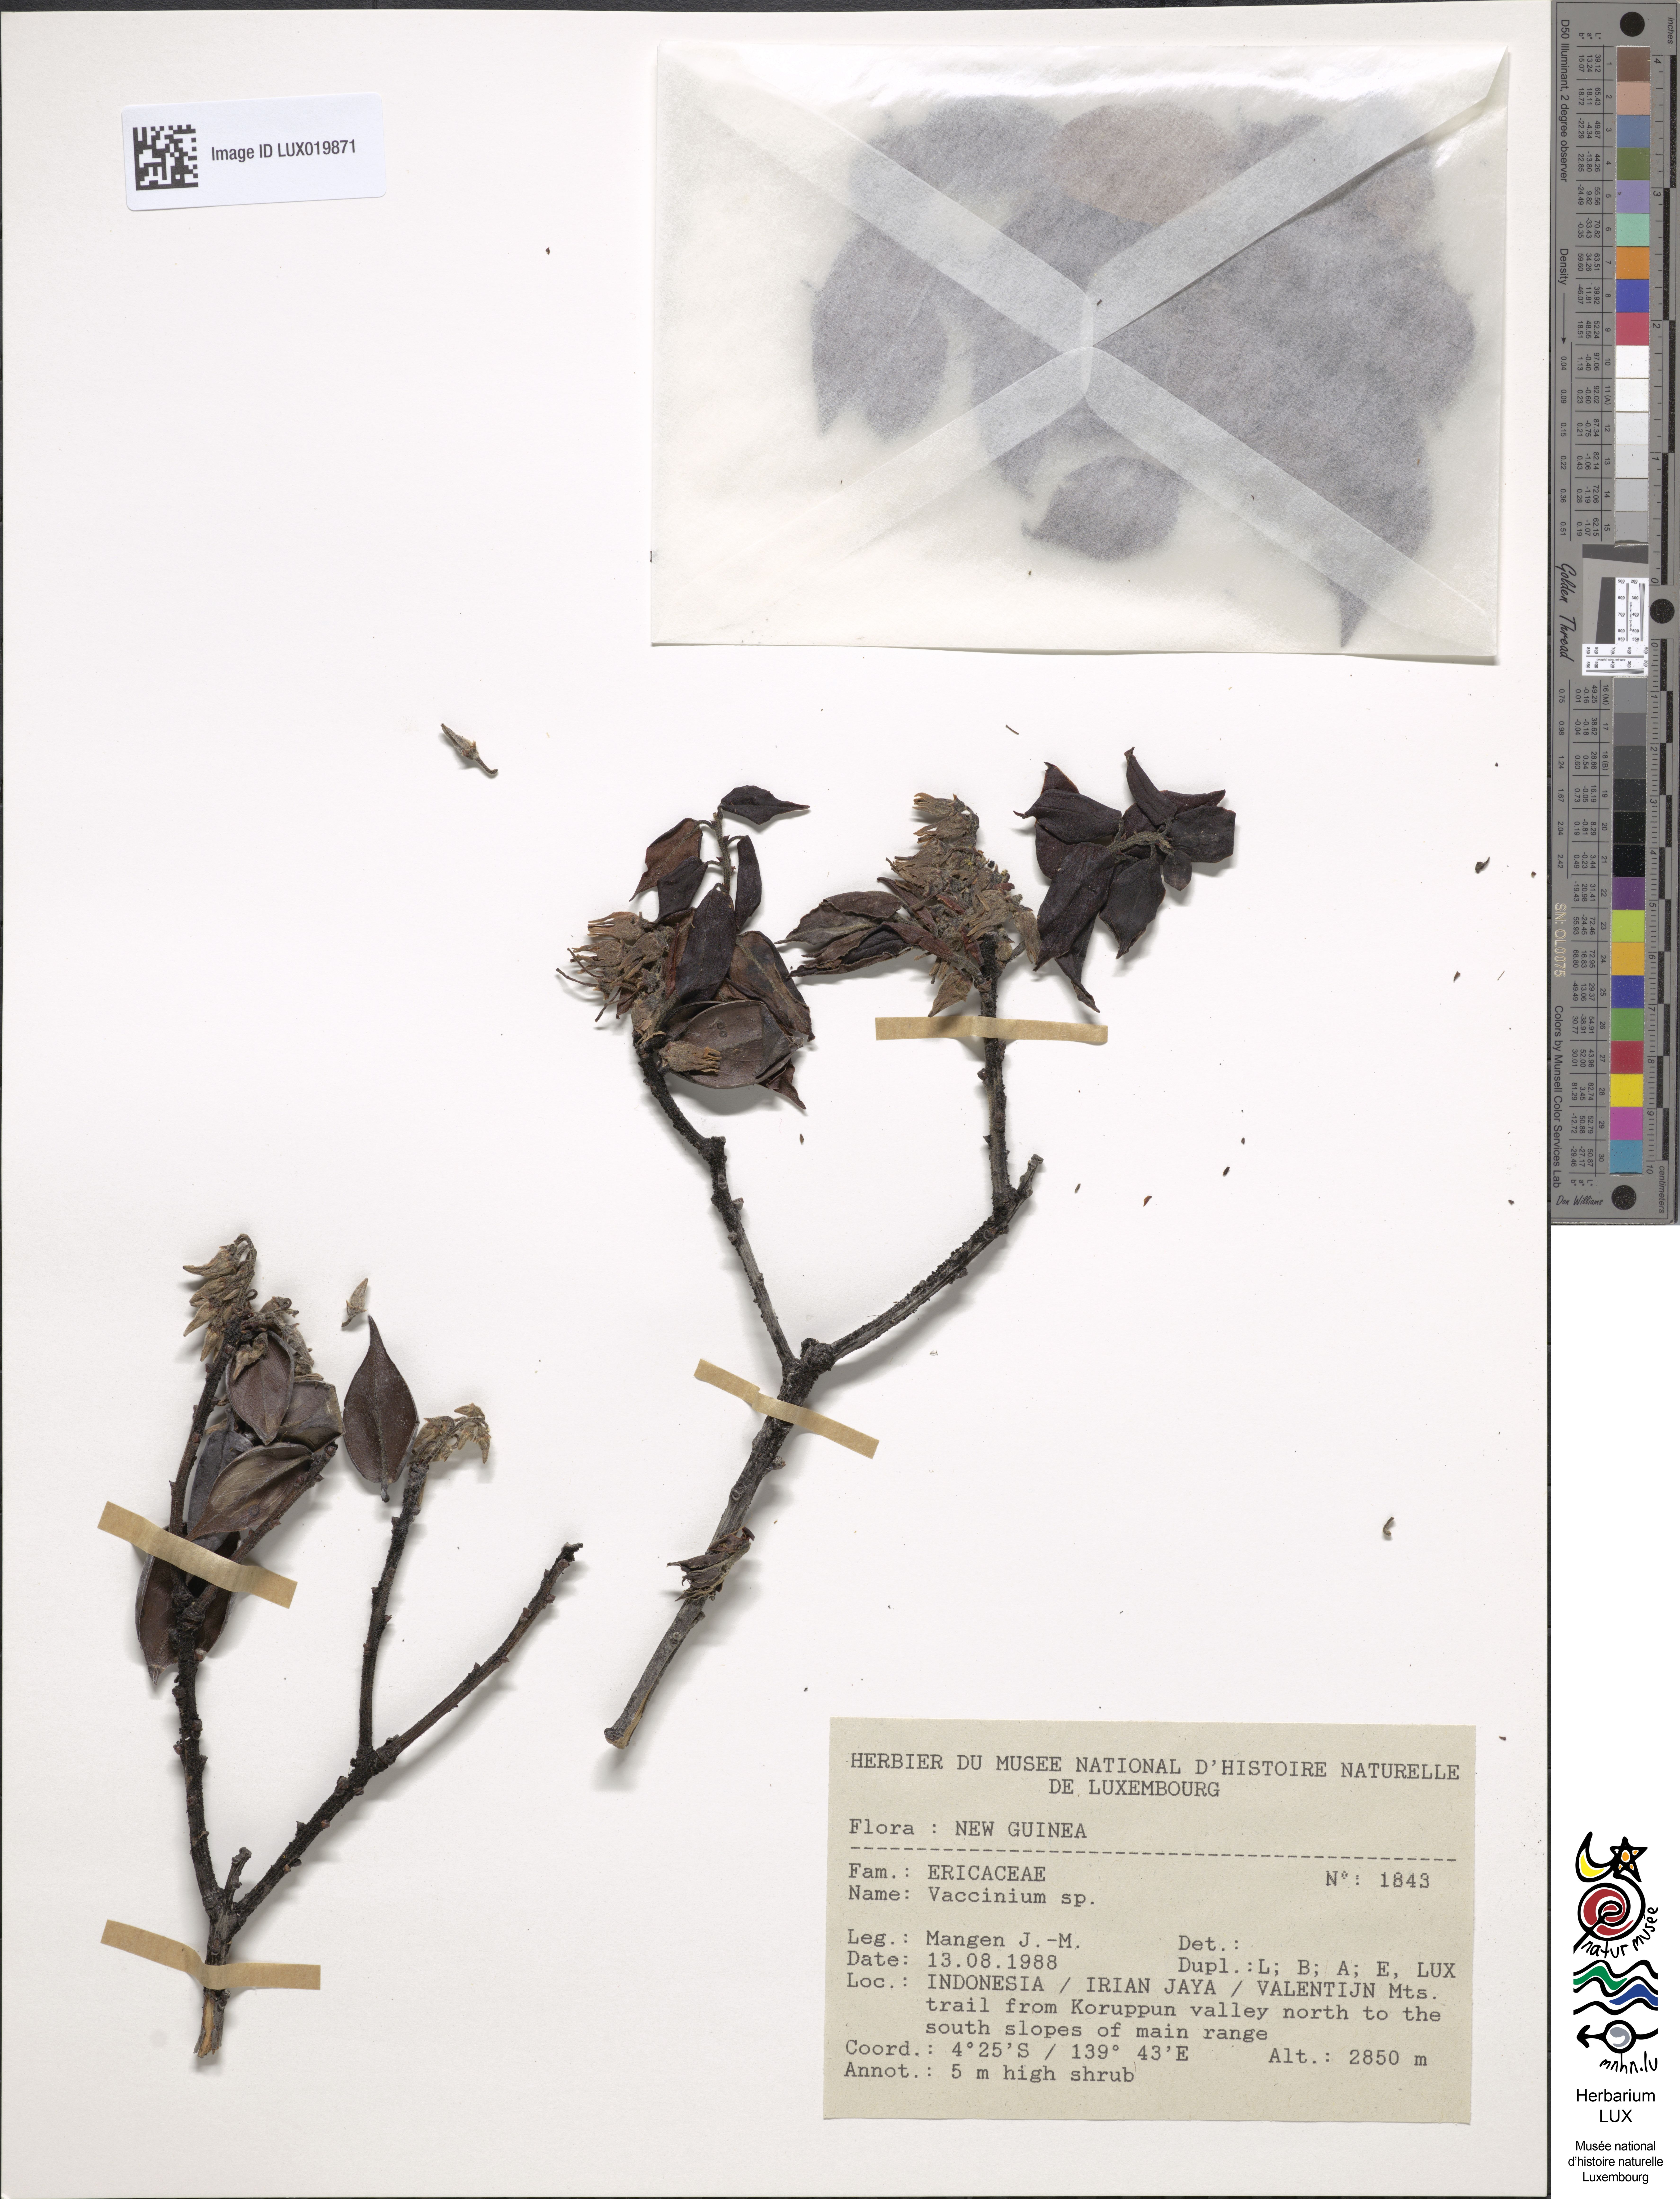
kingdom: Plantae
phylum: Tracheophyta
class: Magnoliopsida
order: Ericales
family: Ericaceae
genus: Vaccinium
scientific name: Vaccinium
